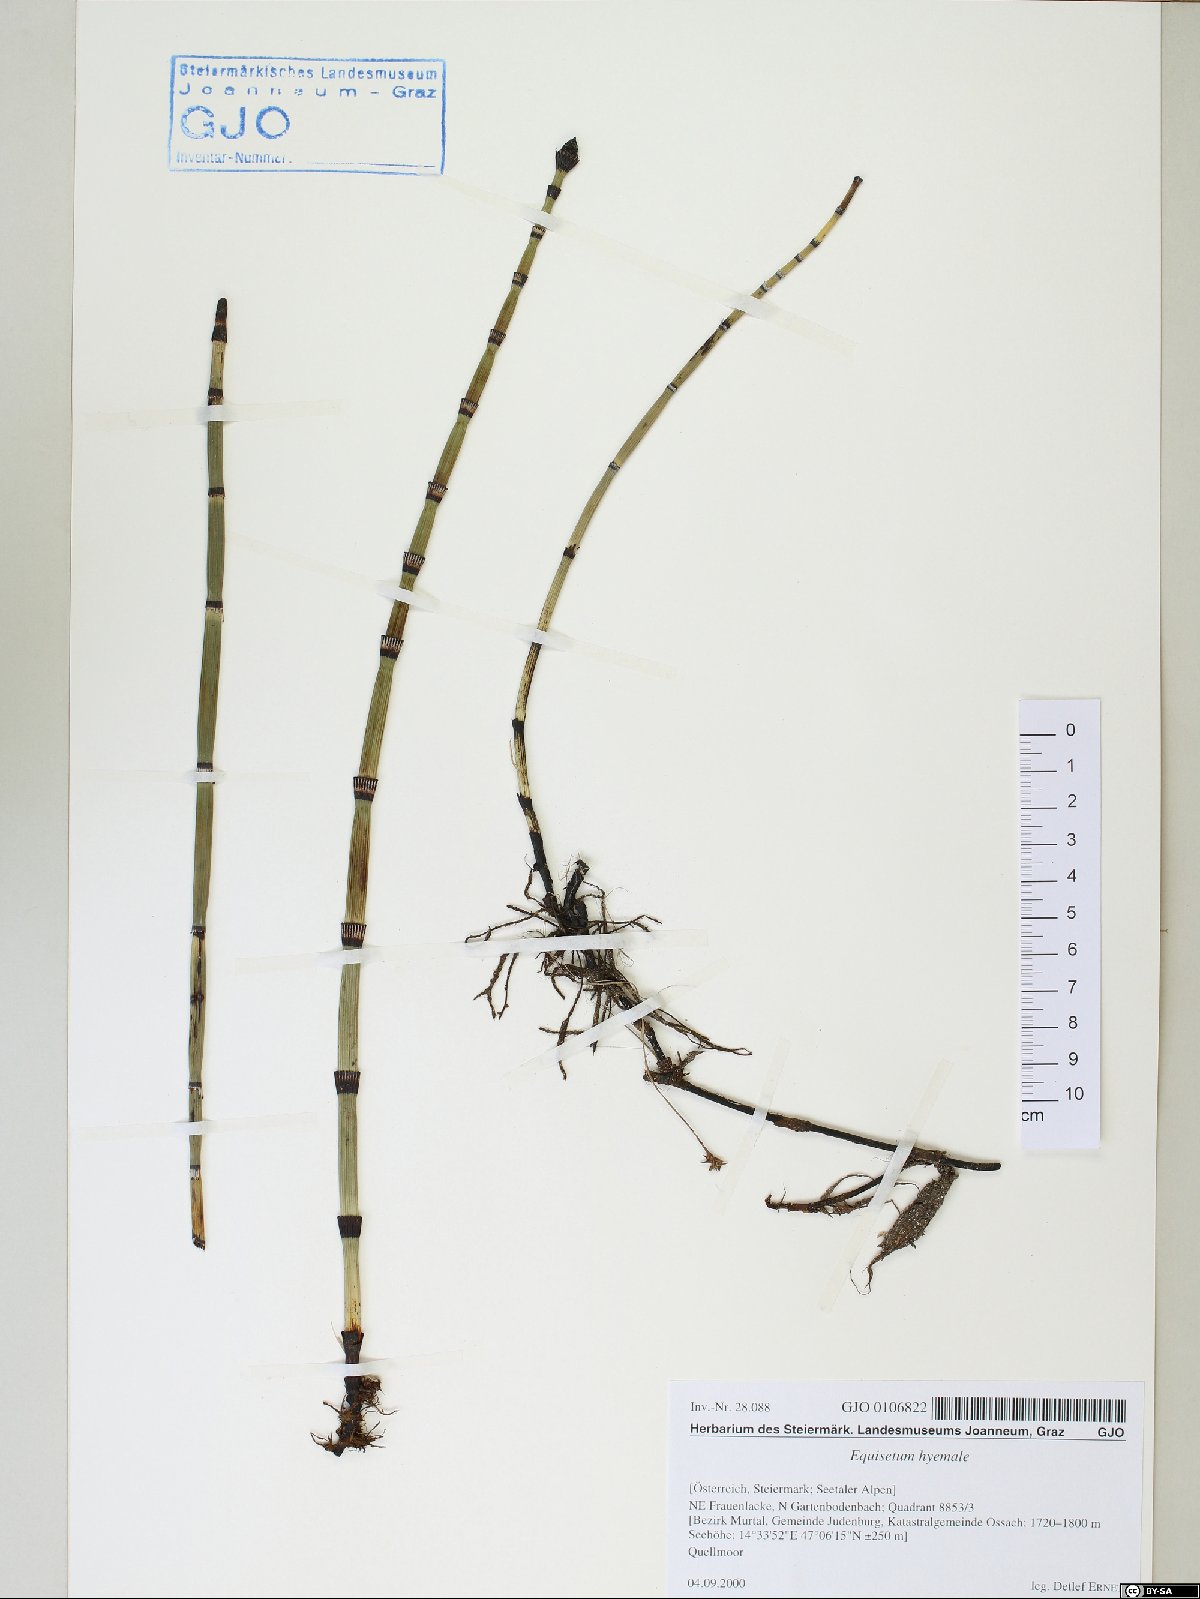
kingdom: Plantae
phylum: Tracheophyta
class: Polypodiopsida
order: Equisetales
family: Equisetaceae
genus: Equisetum
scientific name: Equisetum hyemale
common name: Rough horsetail
